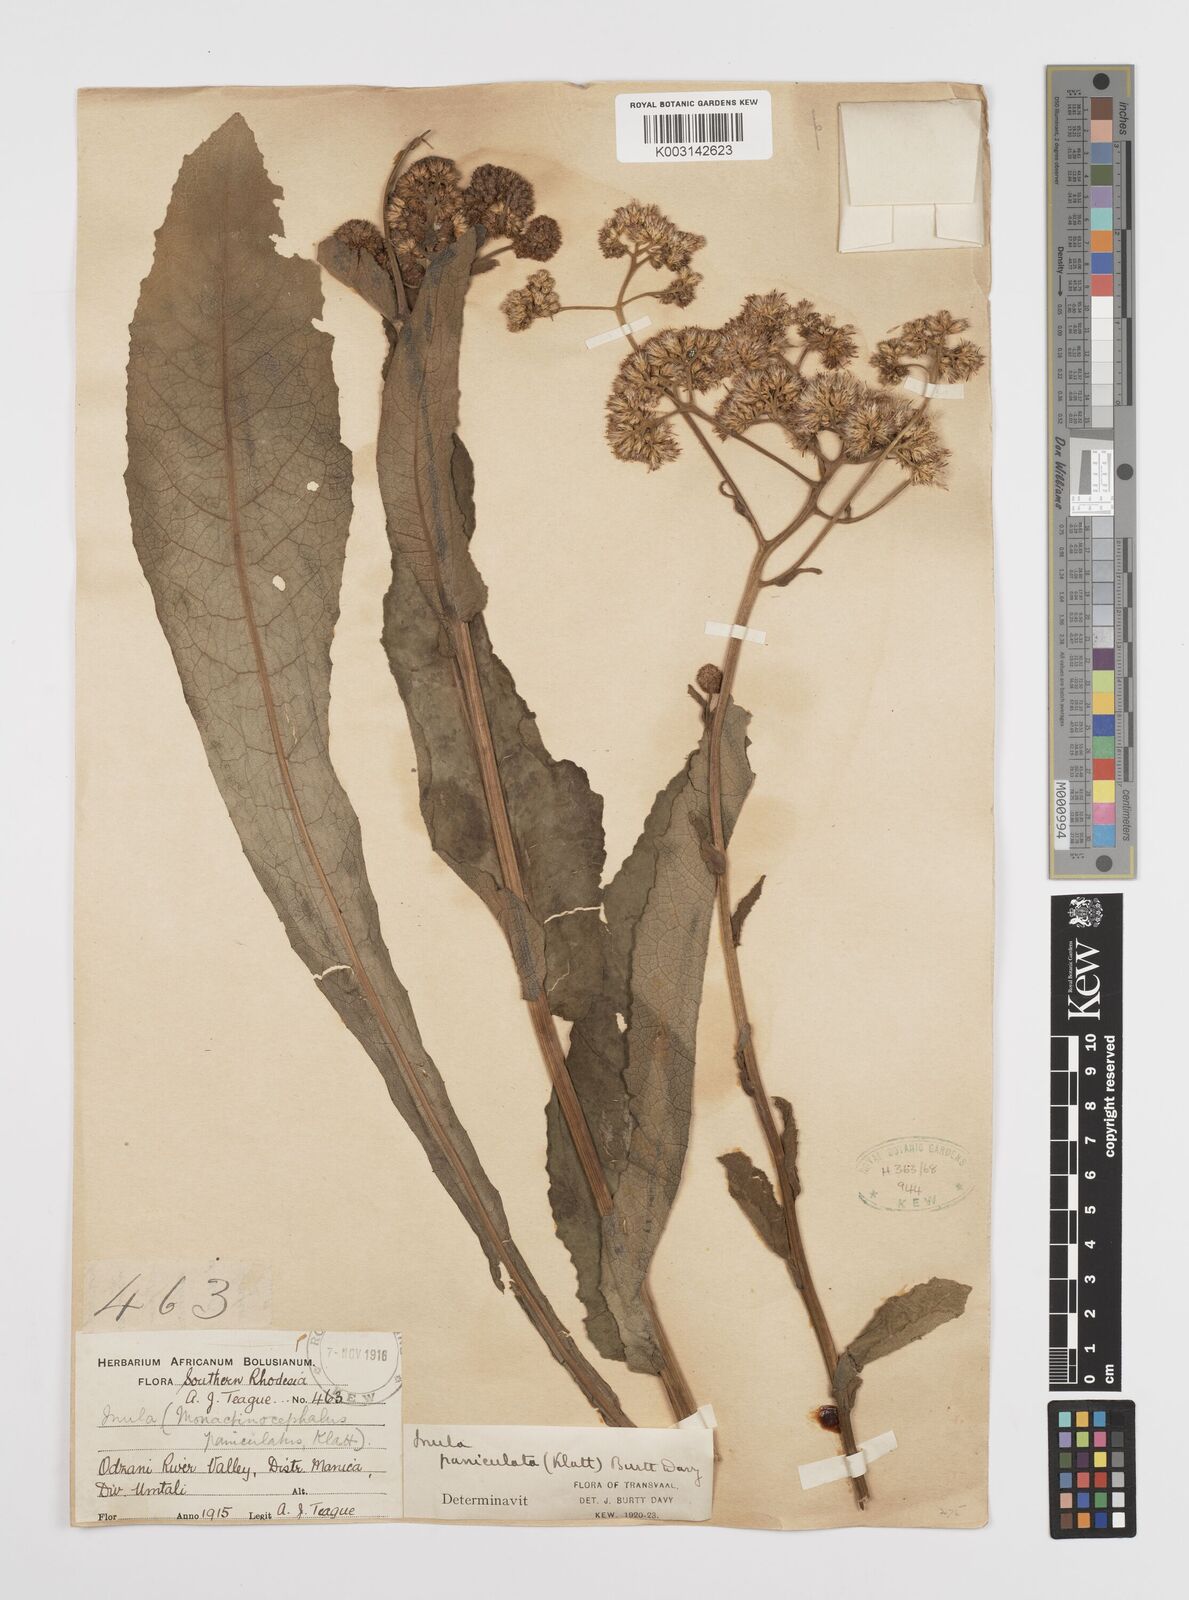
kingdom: Plantae
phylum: Tracheophyta
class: Magnoliopsida
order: Asterales
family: Asteraceae
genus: Monactinocephalus
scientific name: Monactinocephalus paniculatus
